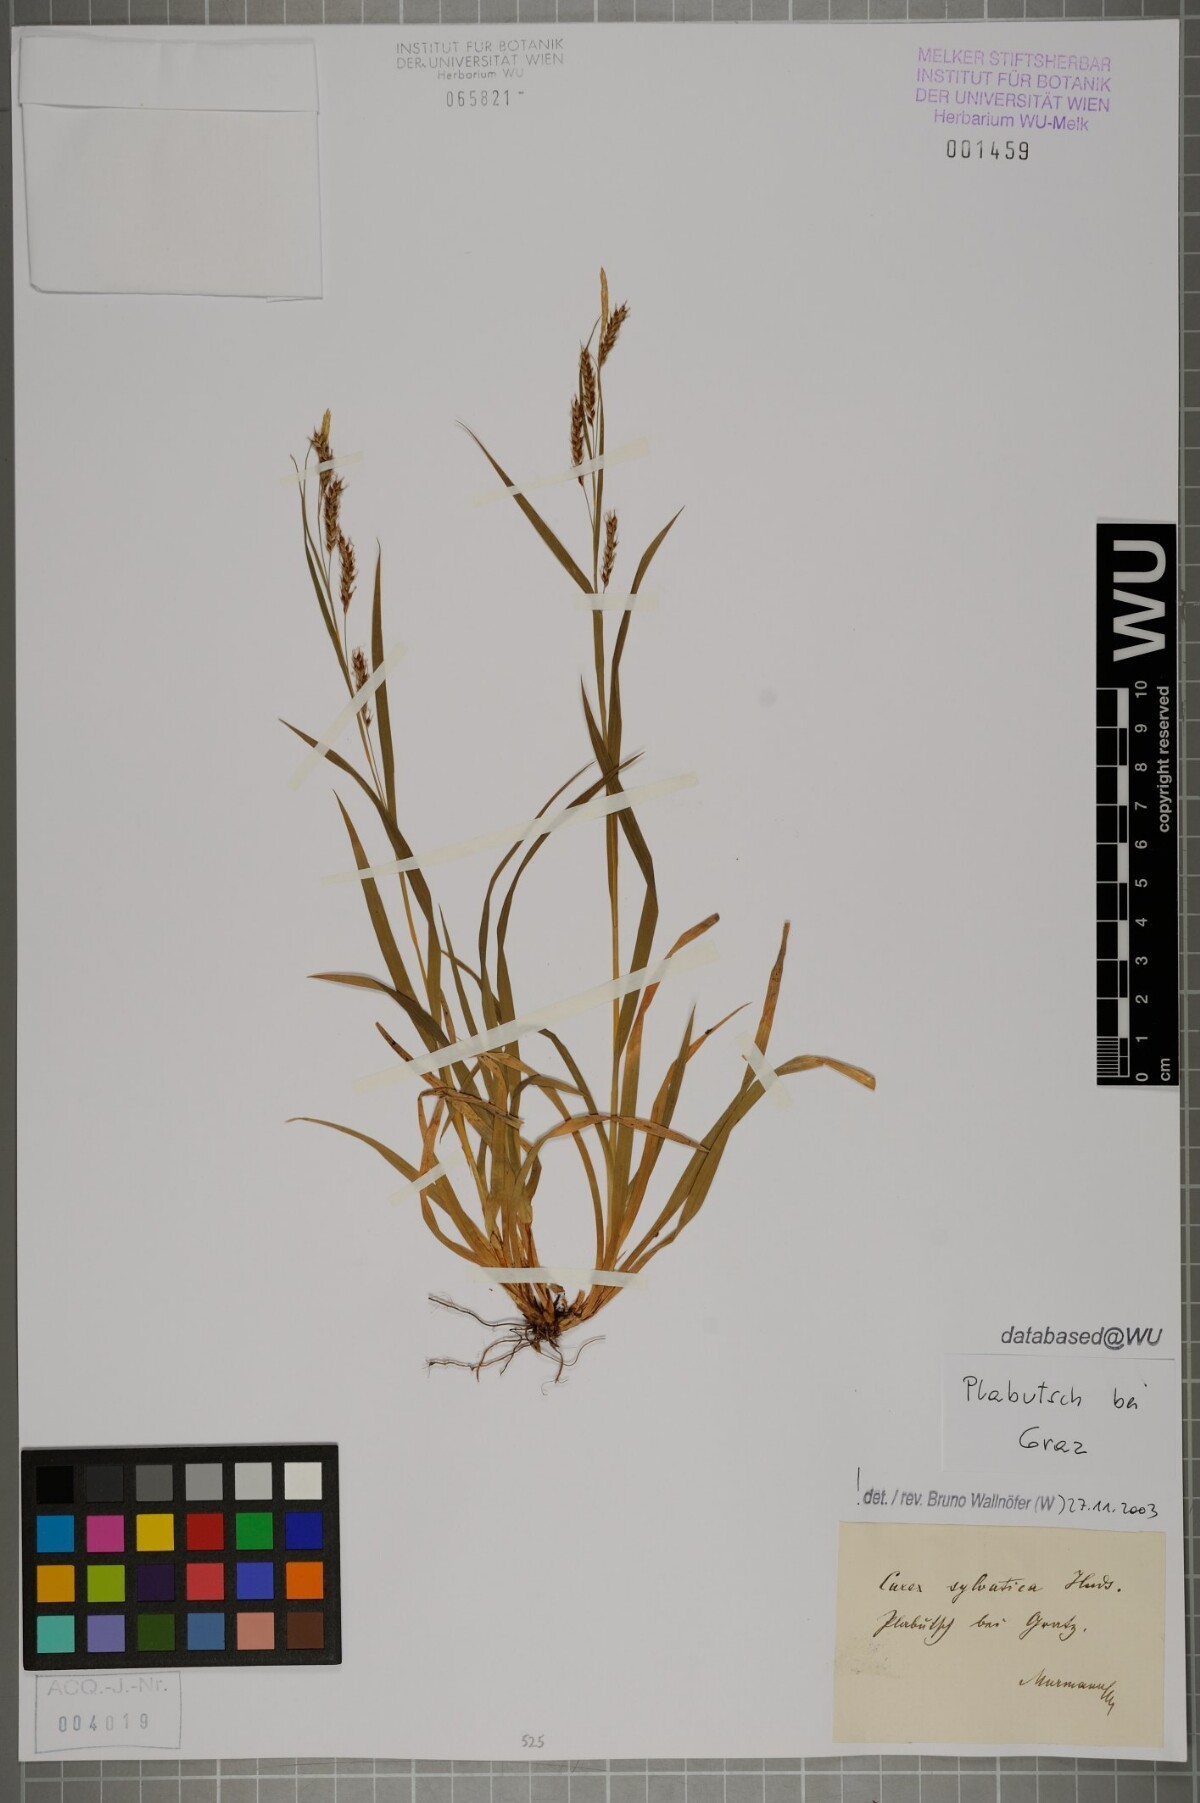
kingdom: Plantae
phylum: Tracheophyta
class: Liliopsida
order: Poales
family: Cyperaceae
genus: Carex
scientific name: Carex sylvatica
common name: Wood-sedge
